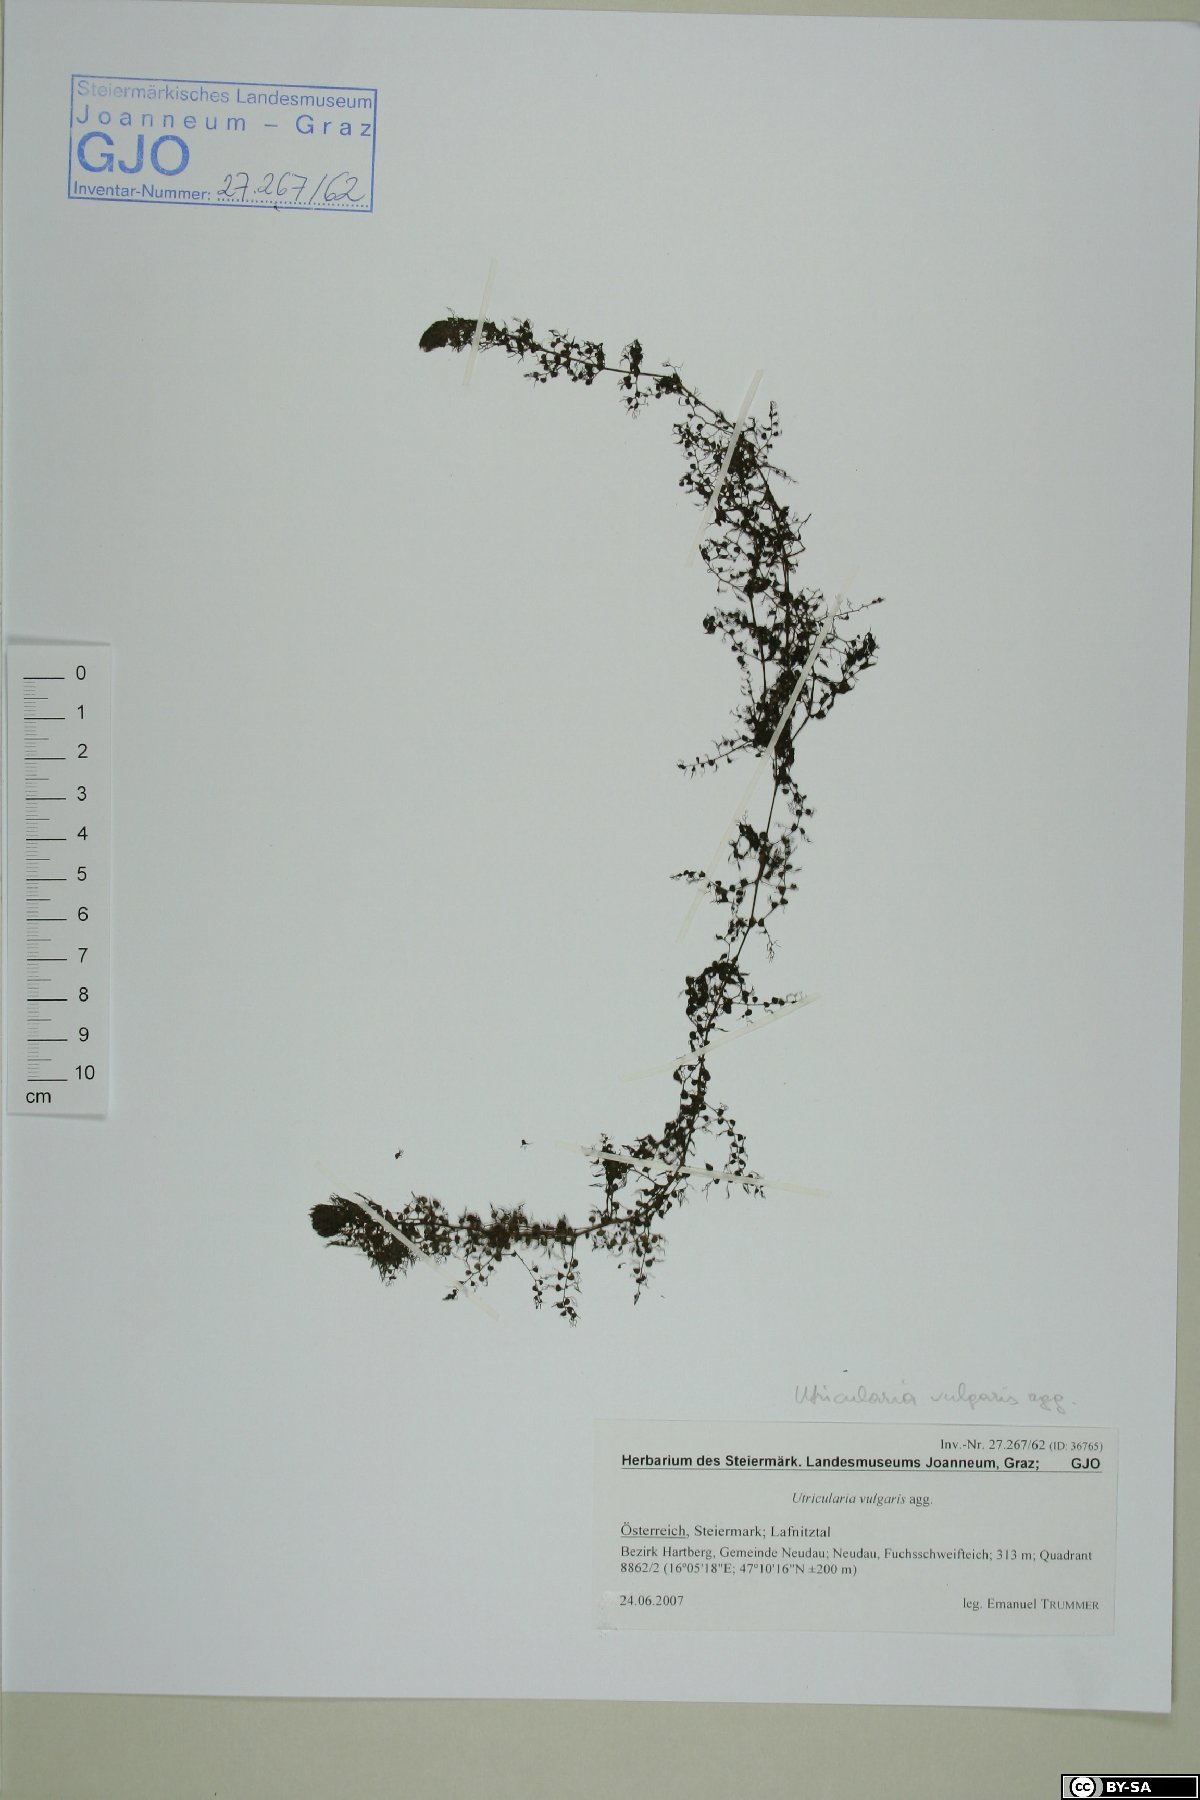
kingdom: Plantae
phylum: Tracheophyta
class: Magnoliopsida
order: Lamiales
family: Lentibulariaceae
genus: Utricularia
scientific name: Utricularia vulgaris
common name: Greater bladderwort
